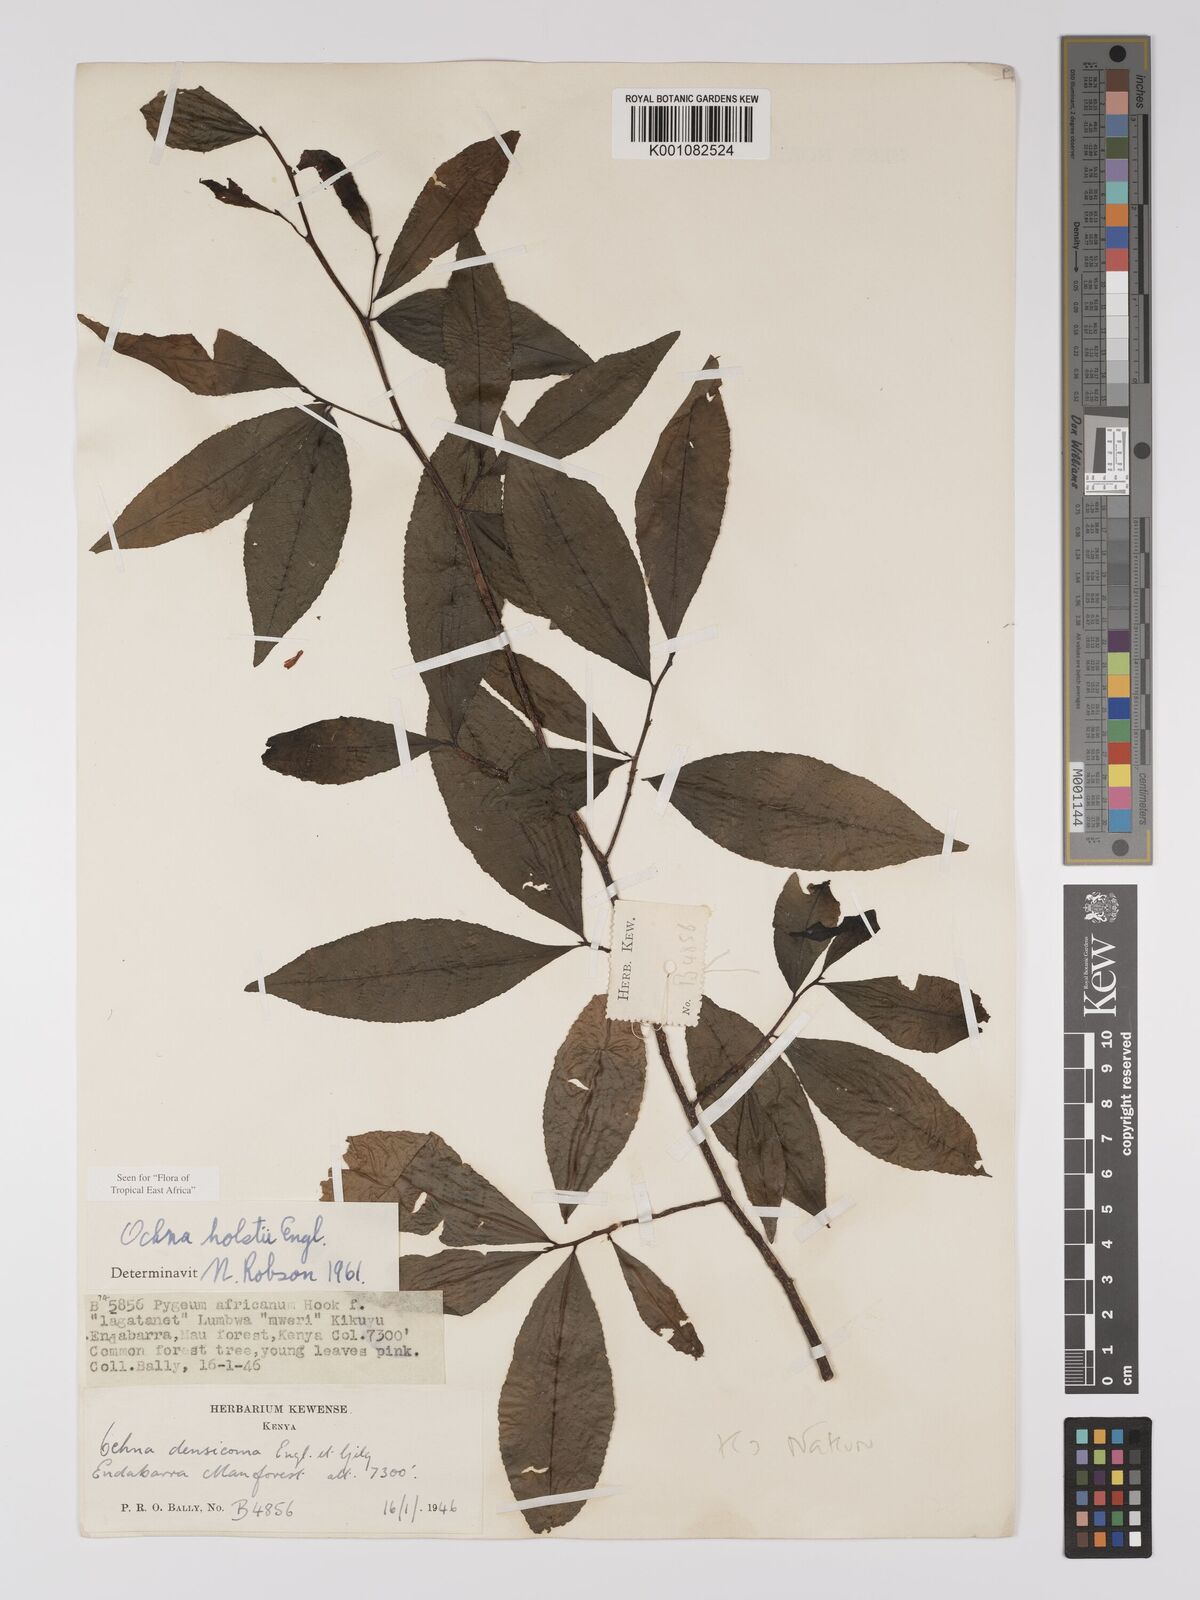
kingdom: Plantae
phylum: Tracheophyta
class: Magnoliopsida
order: Malpighiales
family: Ochnaceae
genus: Ochna
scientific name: Ochna holstii
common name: Red ironwood
